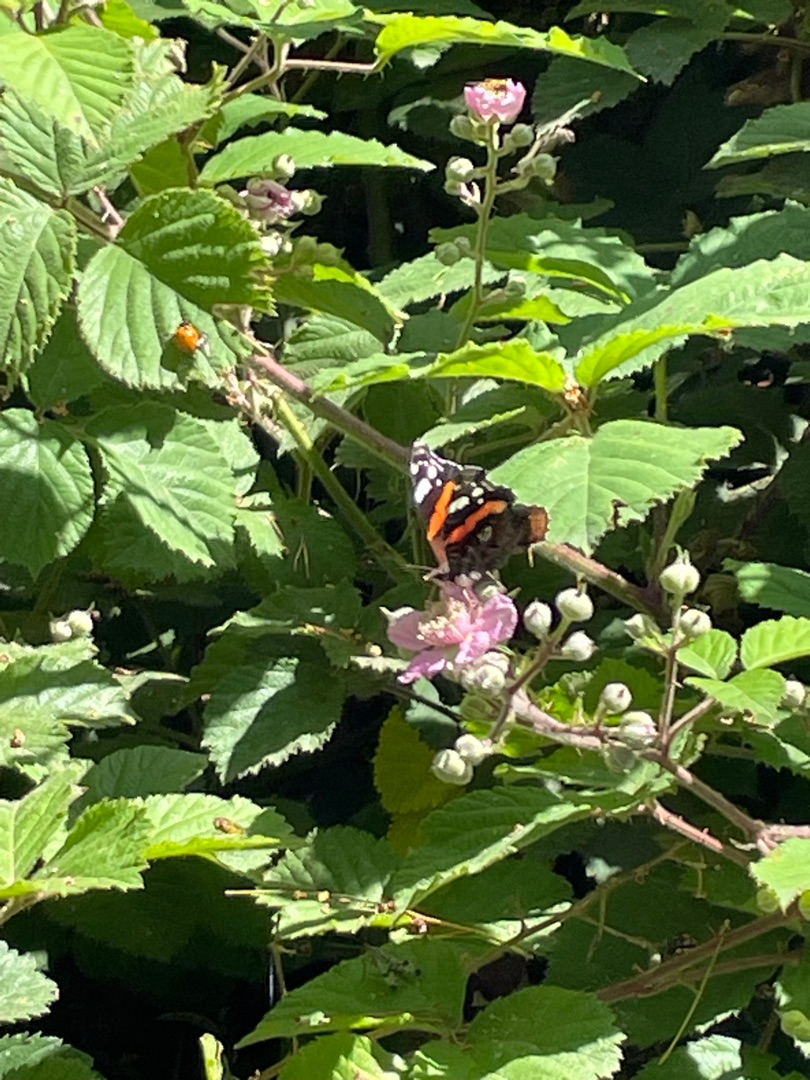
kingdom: Animalia
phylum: Arthropoda
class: Insecta
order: Lepidoptera
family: Nymphalidae
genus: Vanessa
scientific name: Vanessa atalanta
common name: Admiral
